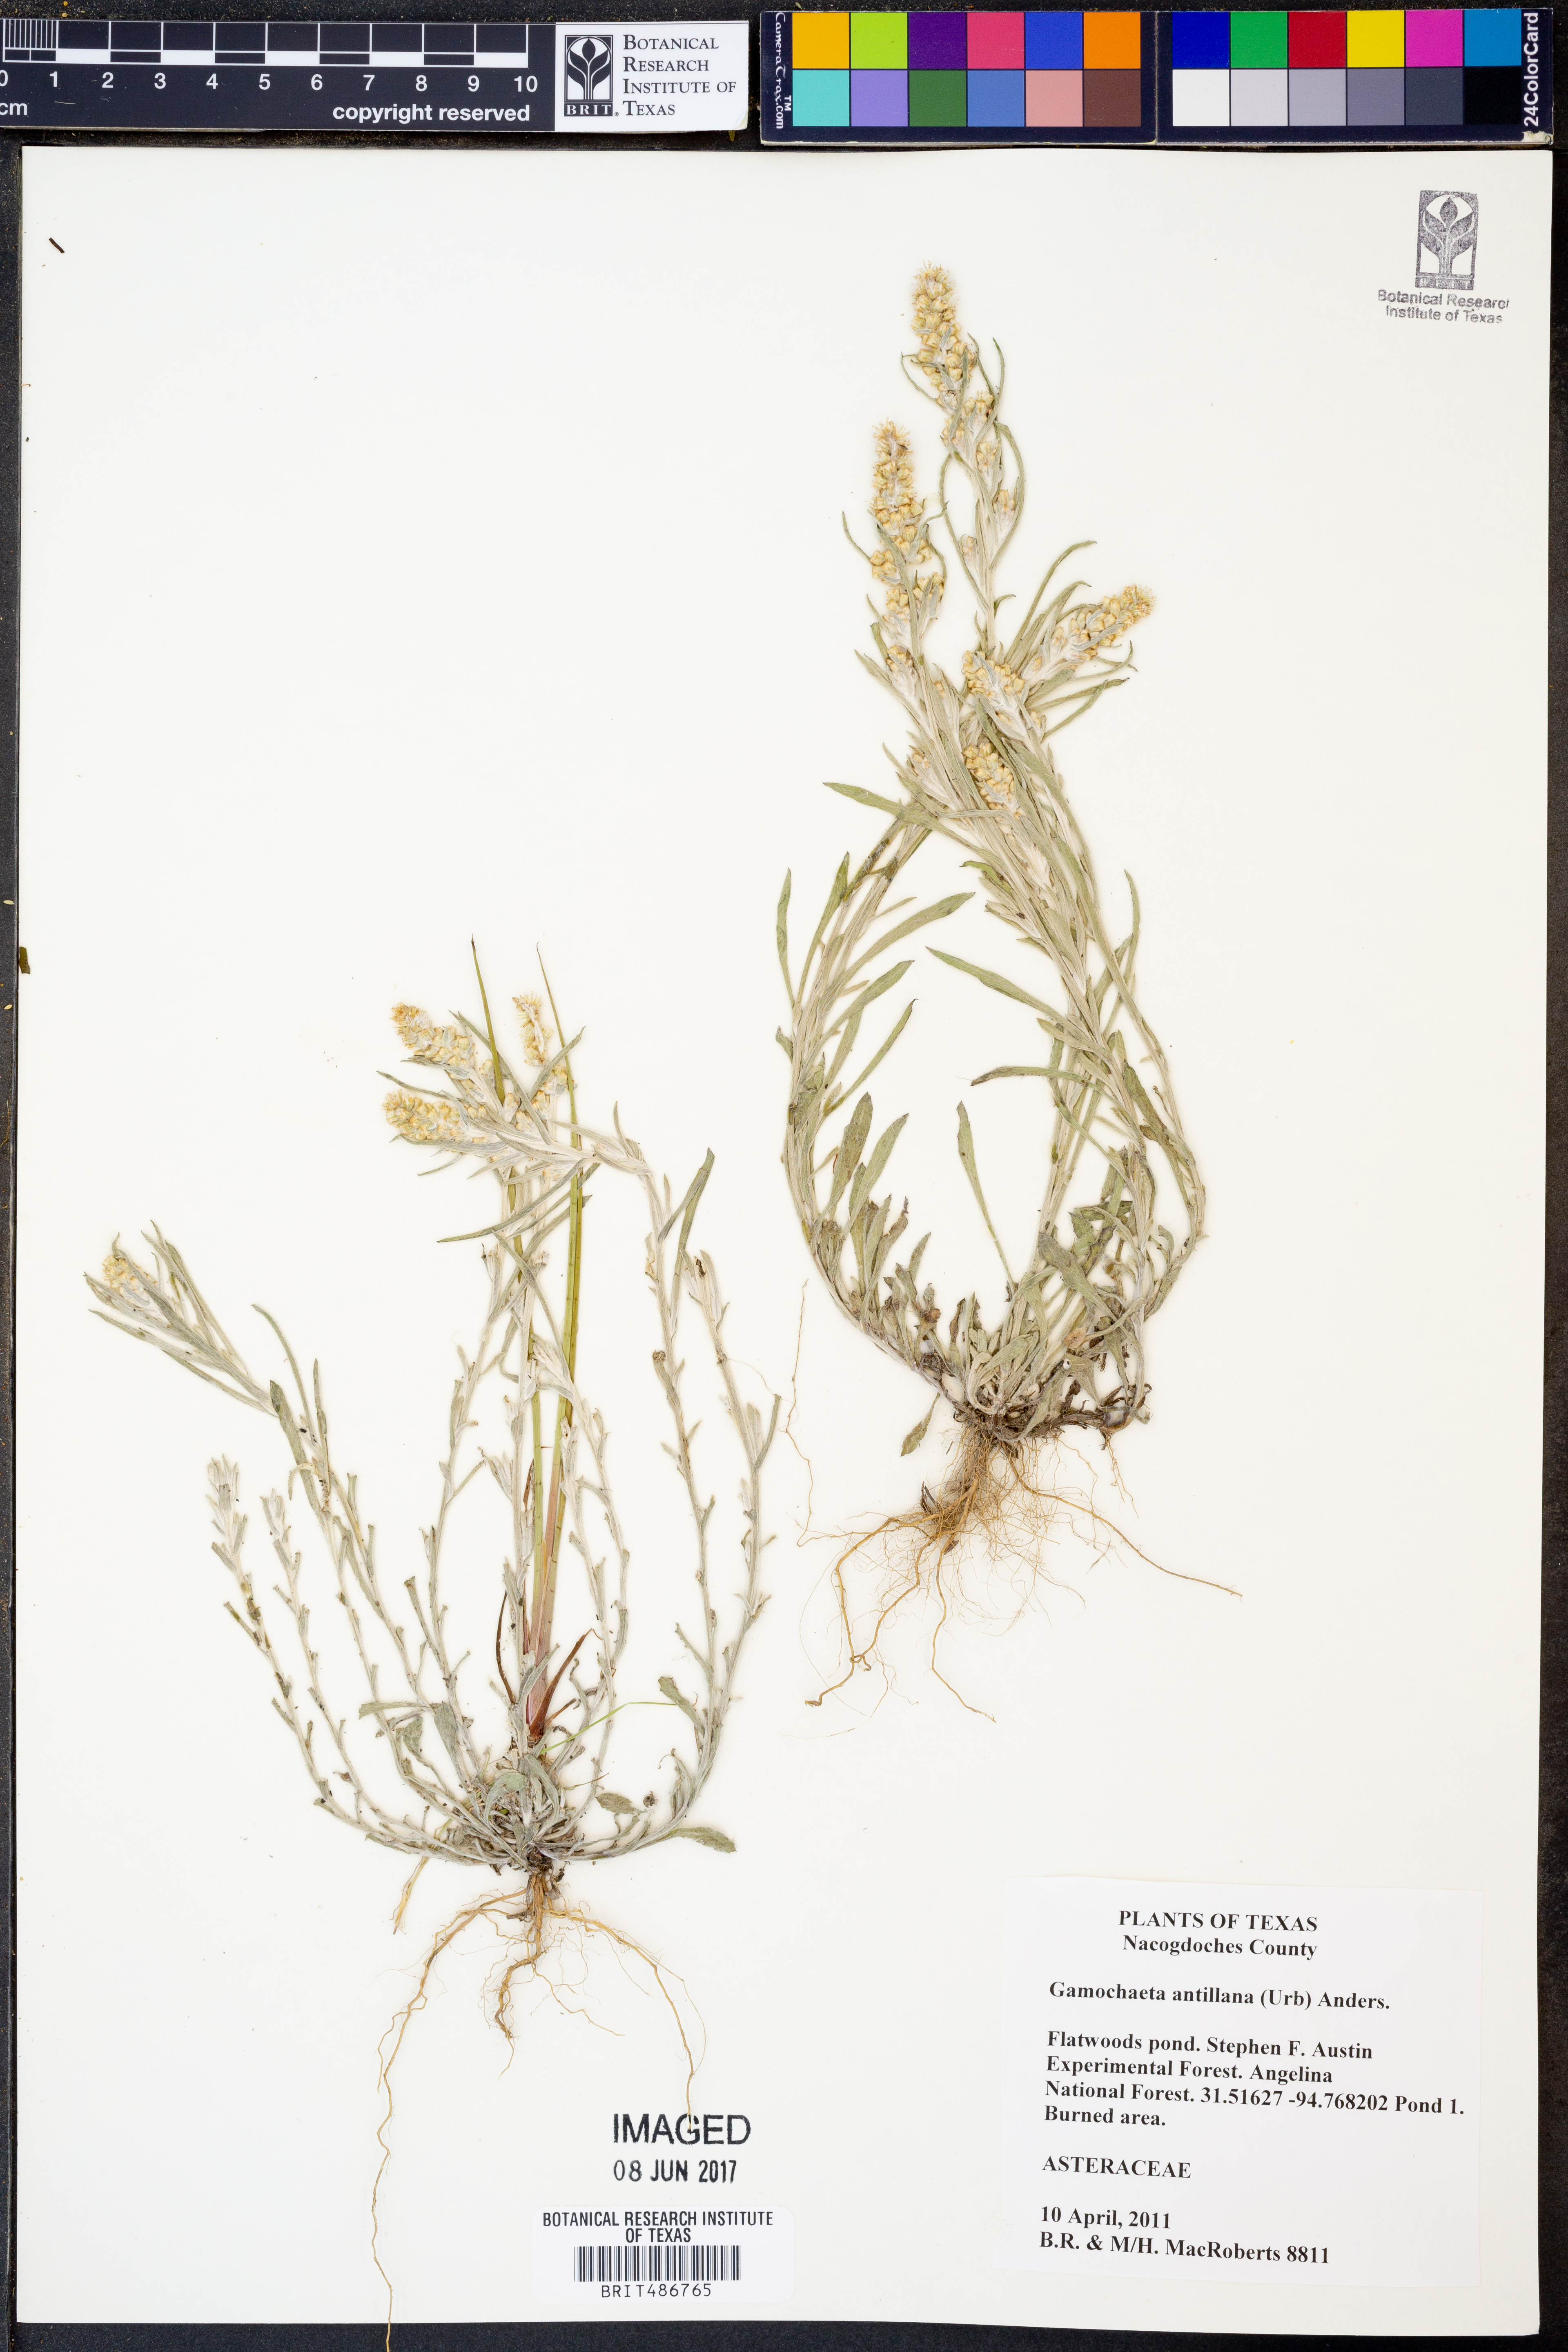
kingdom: Plantae
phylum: Tracheophyta
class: Magnoliopsida
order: Asterales
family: Asteraceae
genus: Gamochaeta
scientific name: Gamochaeta antillana
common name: Delicate everlasting
